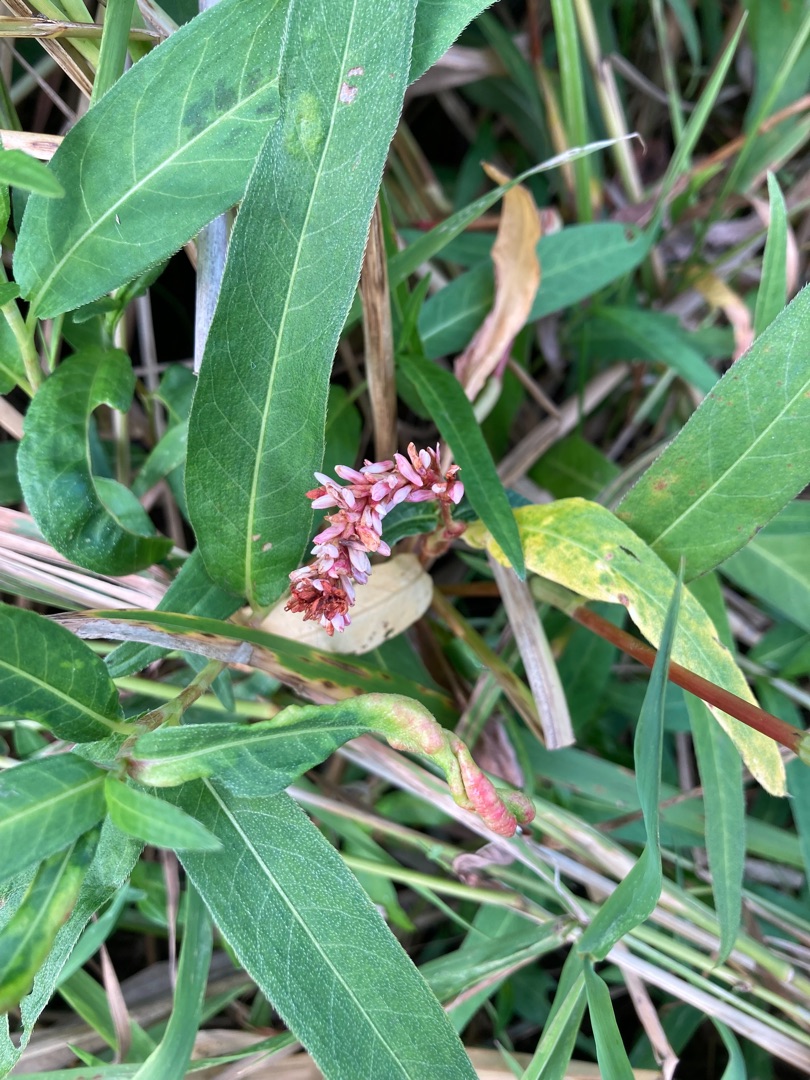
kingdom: Plantae
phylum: Tracheophyta
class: Magnoliopsida
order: Caryophyllales
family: Polygonaceae
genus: Persicaria
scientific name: Persicaria amphibia
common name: Vand-pileurt
